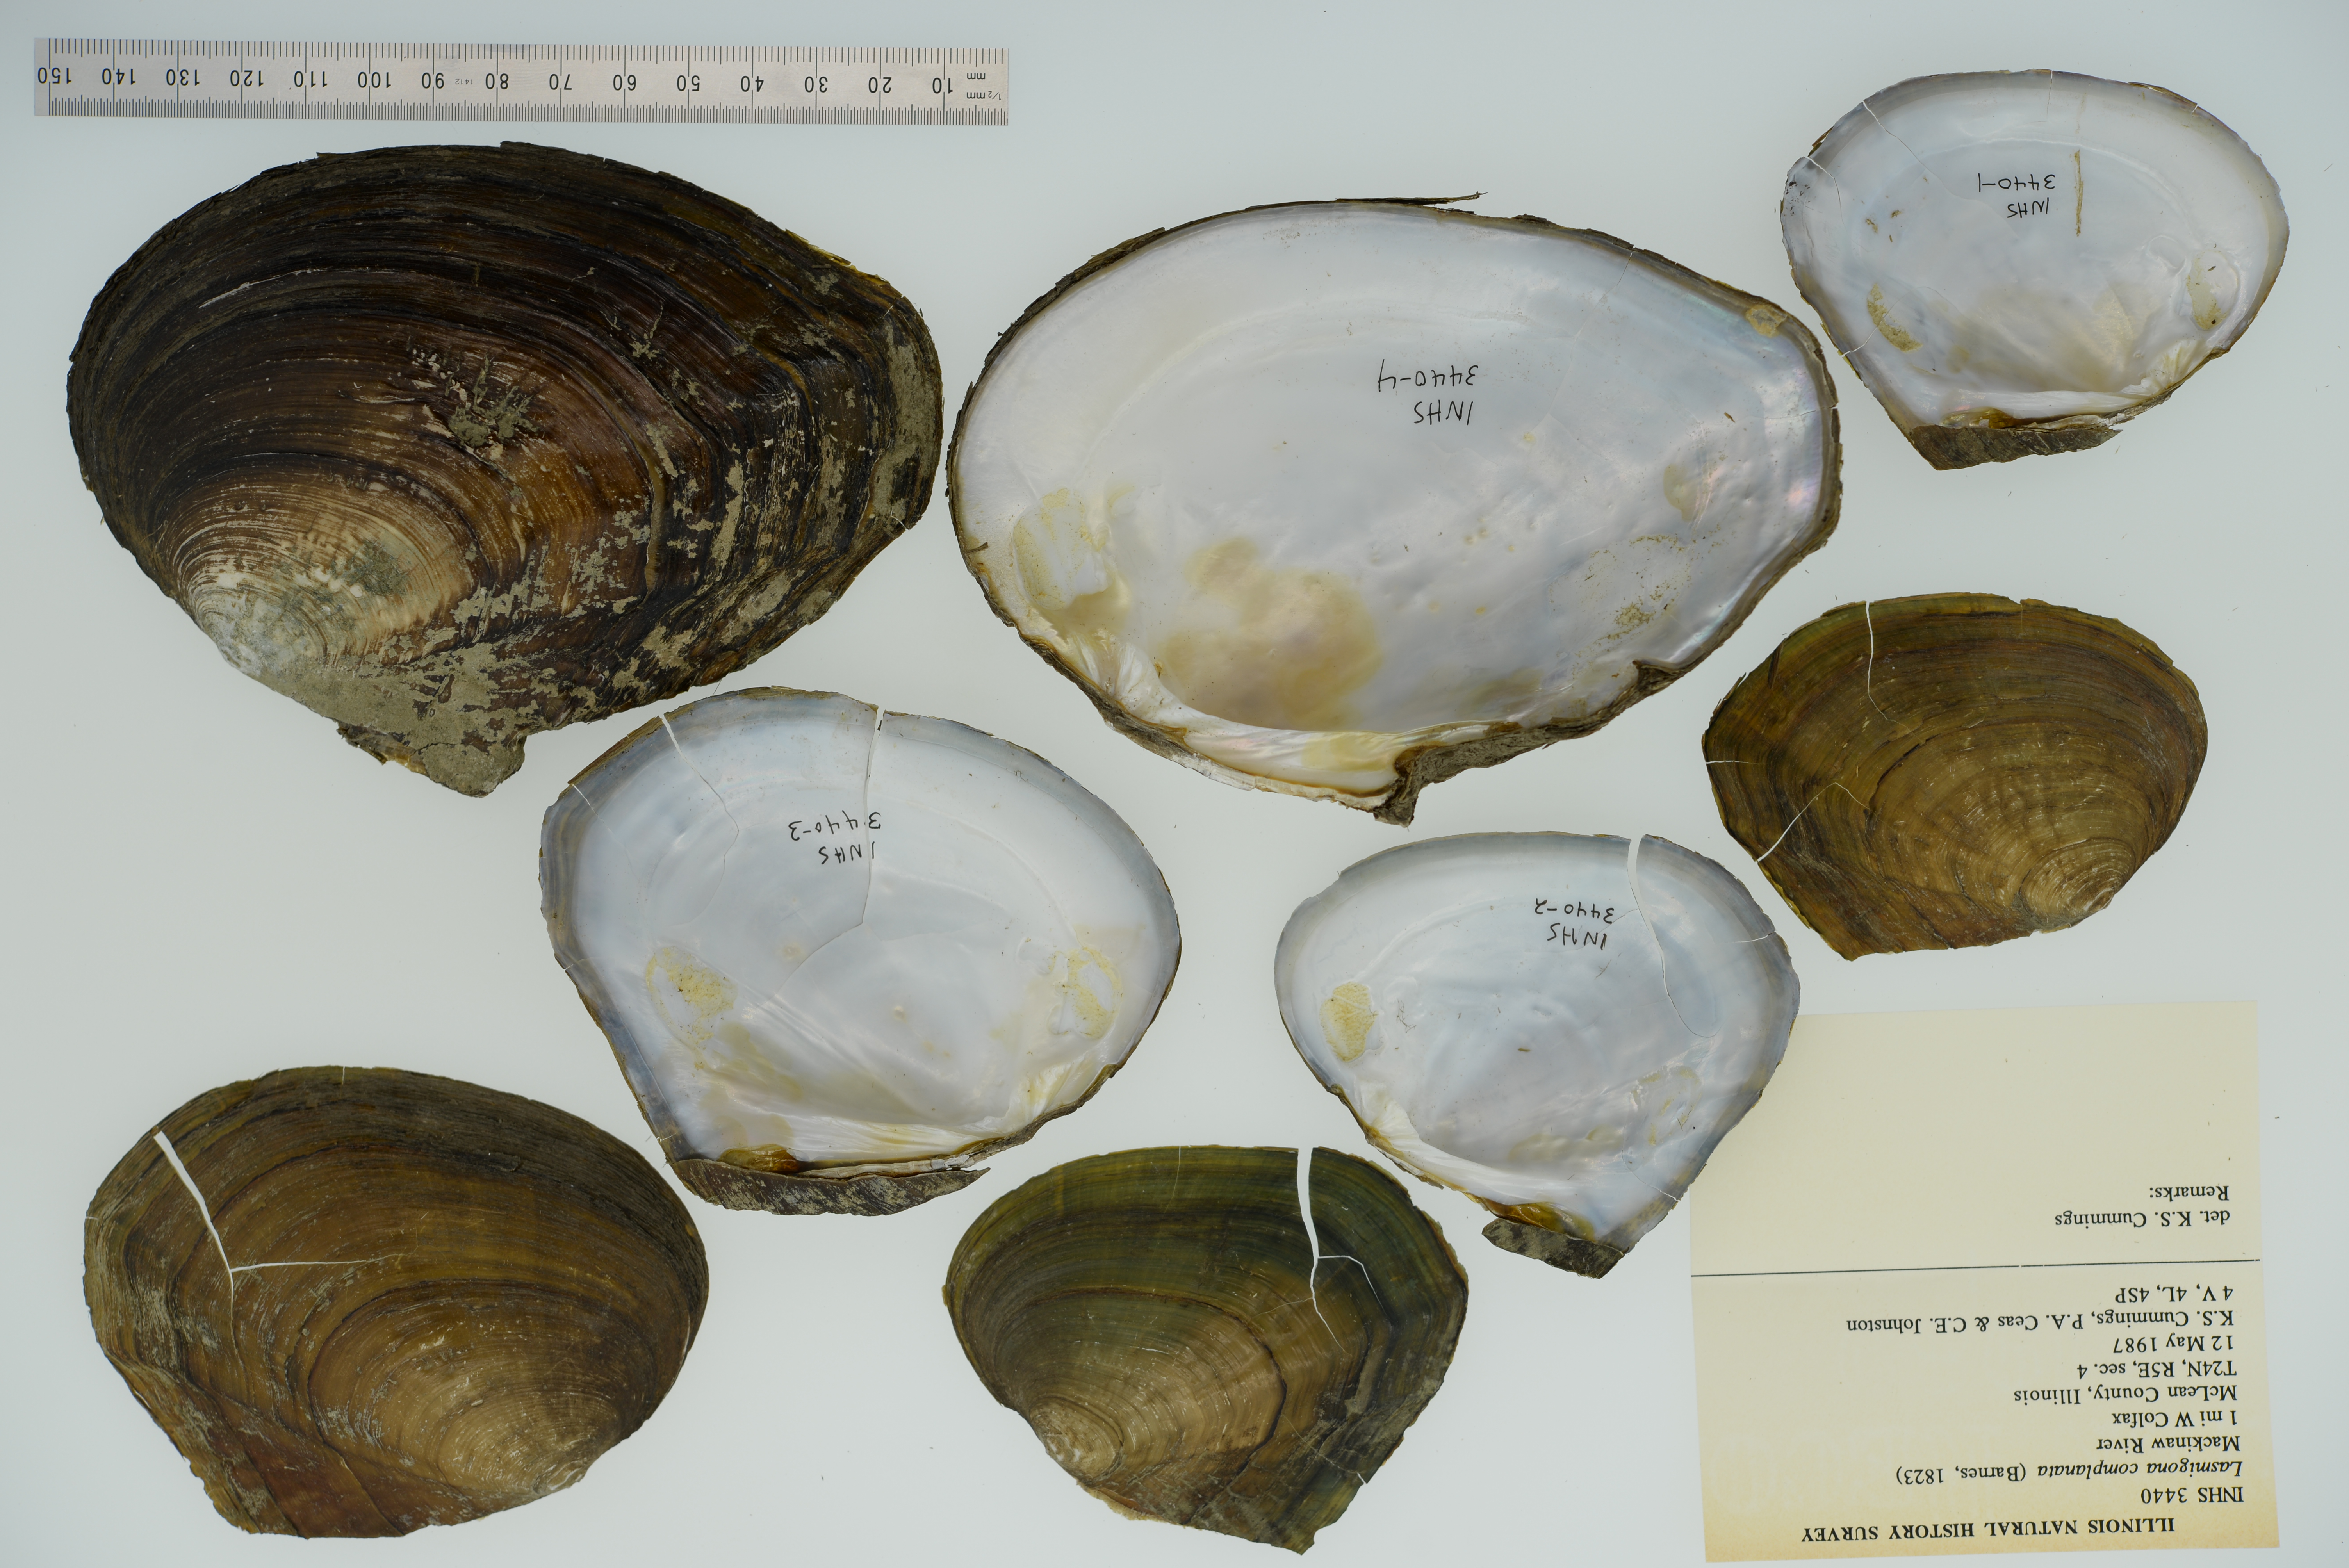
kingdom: Animalia
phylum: Mollusca
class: Bivalvia
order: Unionida
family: Unionidae
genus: Lasmigona
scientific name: Lasmigona complanata
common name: White heelsplitter
